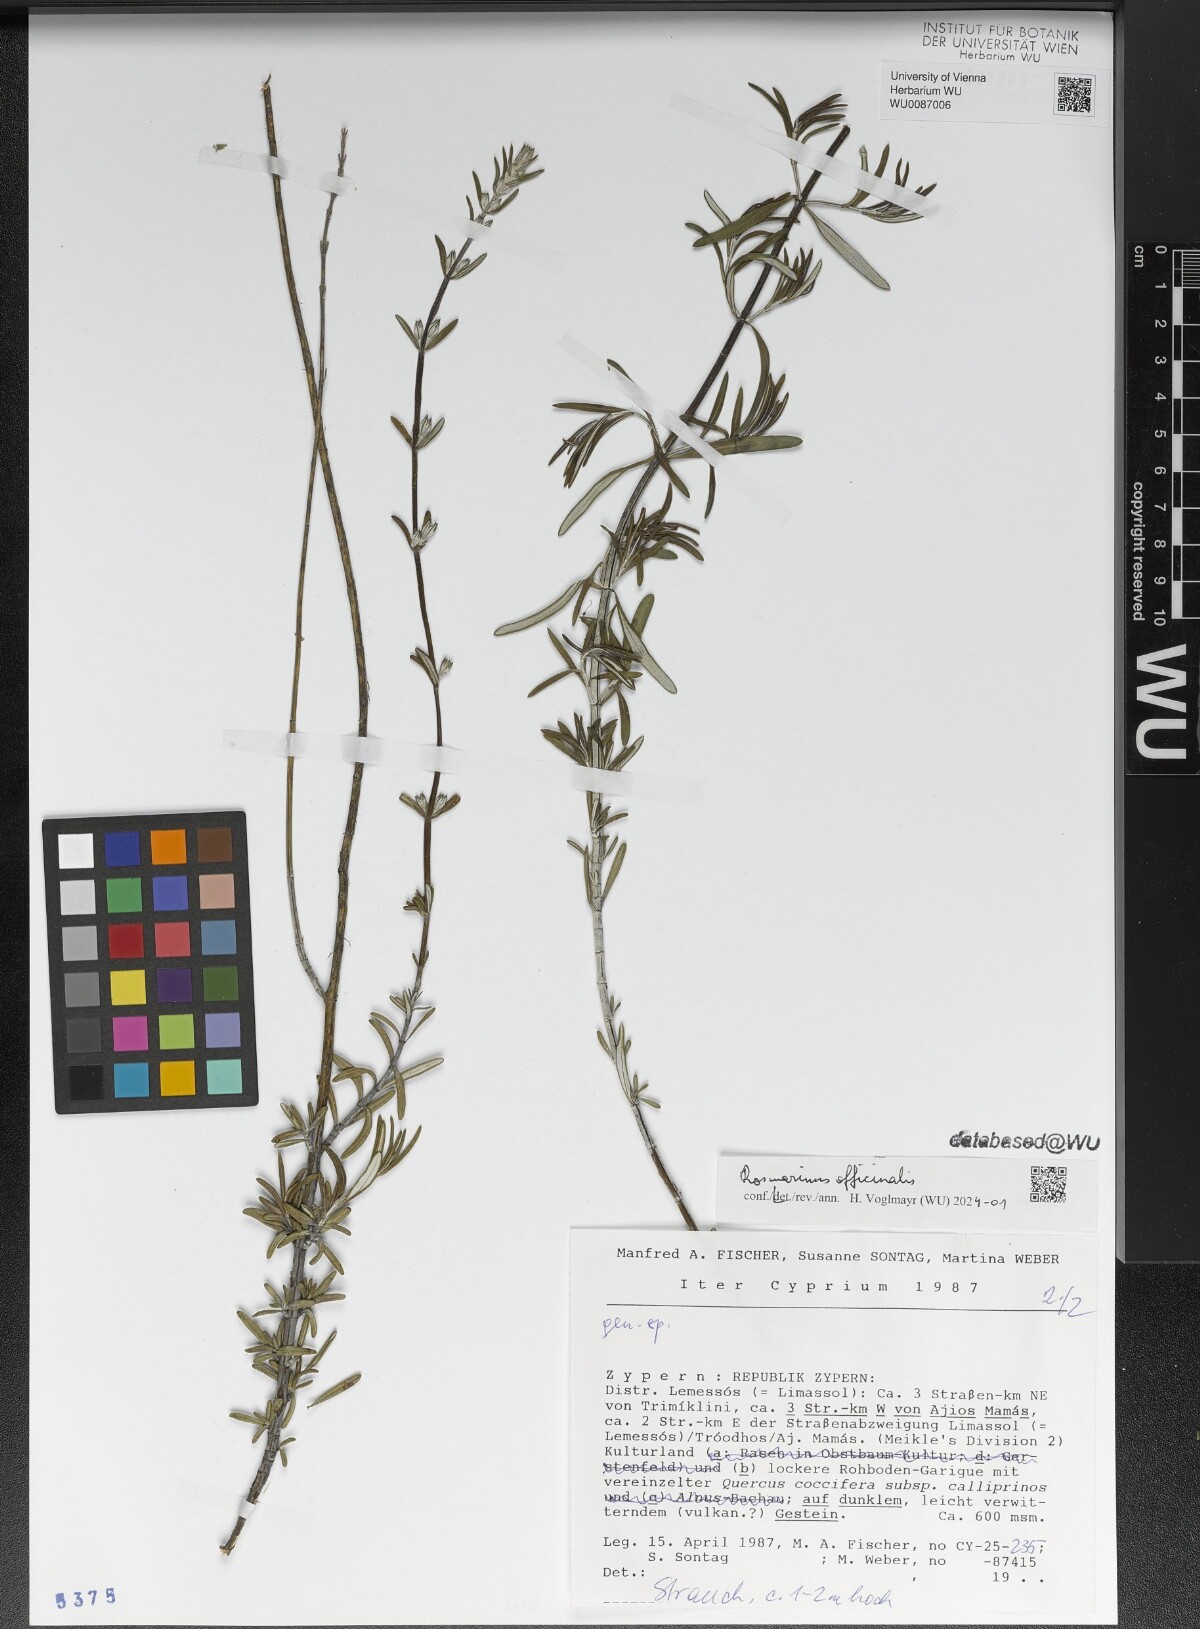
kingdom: Plantae
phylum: Tracheophyta
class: Magnoliopsida
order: Lamiales
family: Lamiaceae
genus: Salvia
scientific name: Salvia rosmarinus
